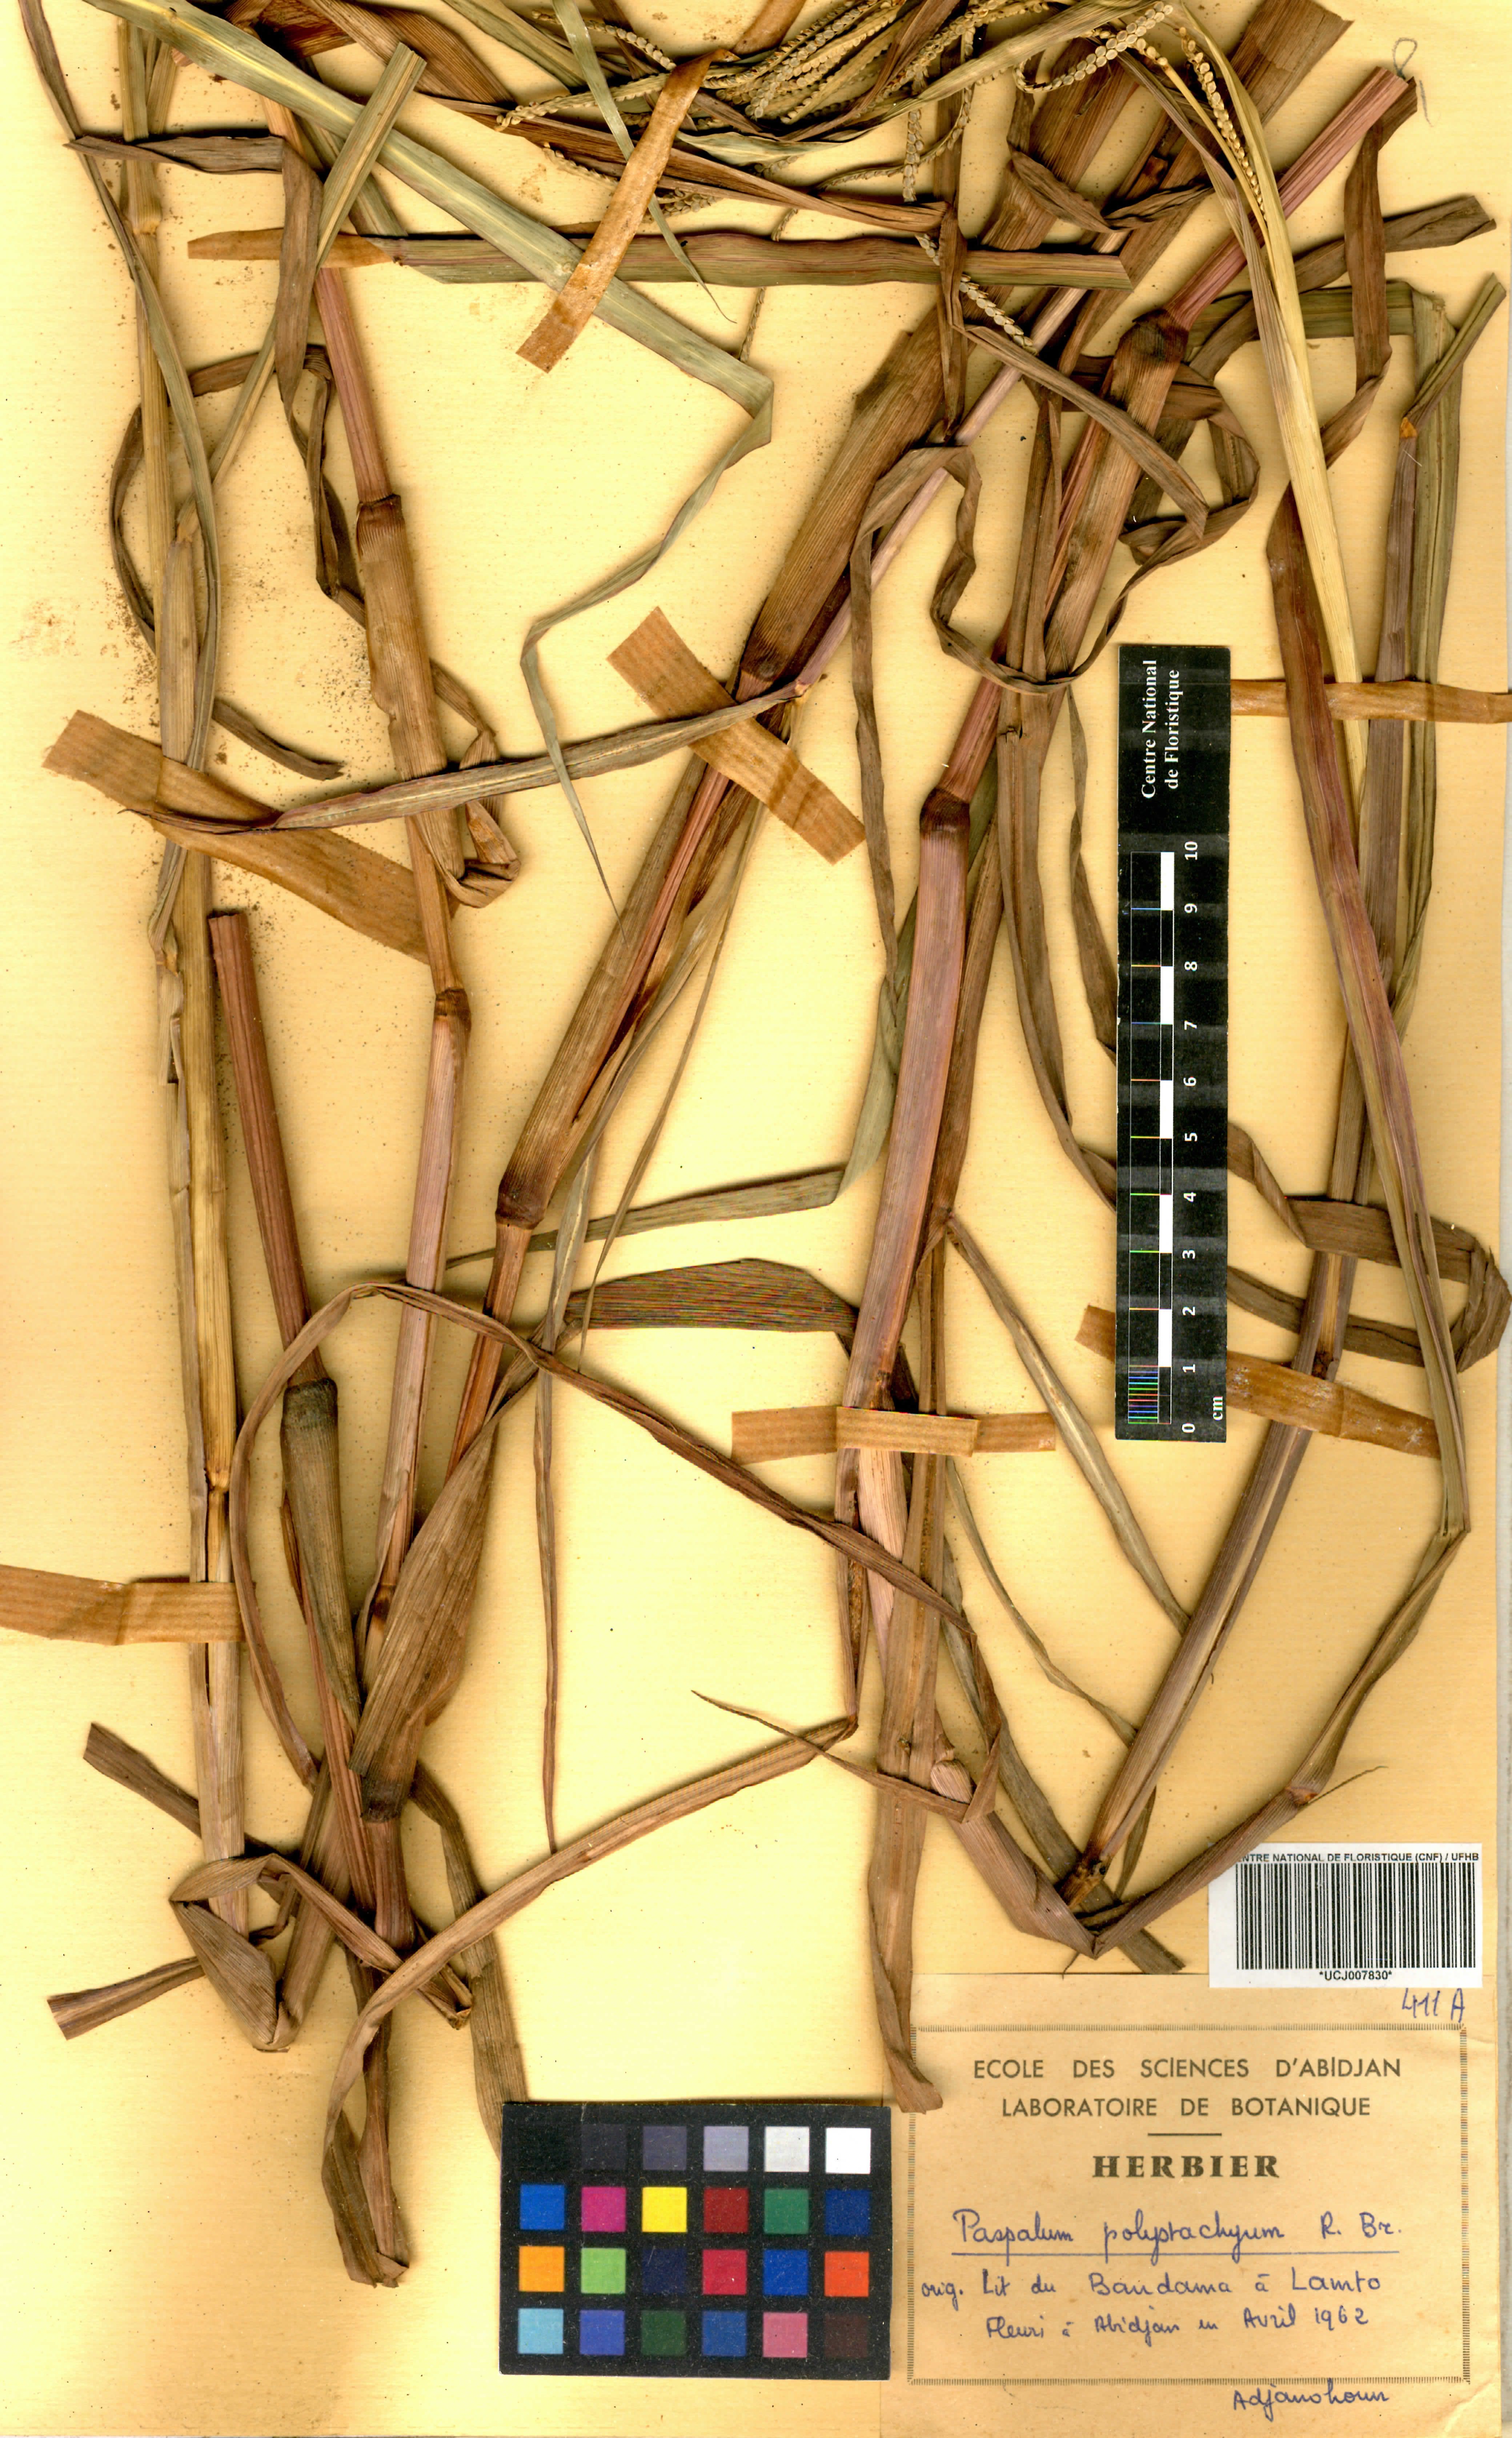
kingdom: Plantae
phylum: Tracheophyta
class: Liliopsida
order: Poales
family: Poaceae
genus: Paspalum
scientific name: Paspalum scrobiculatum
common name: Kodo millet
